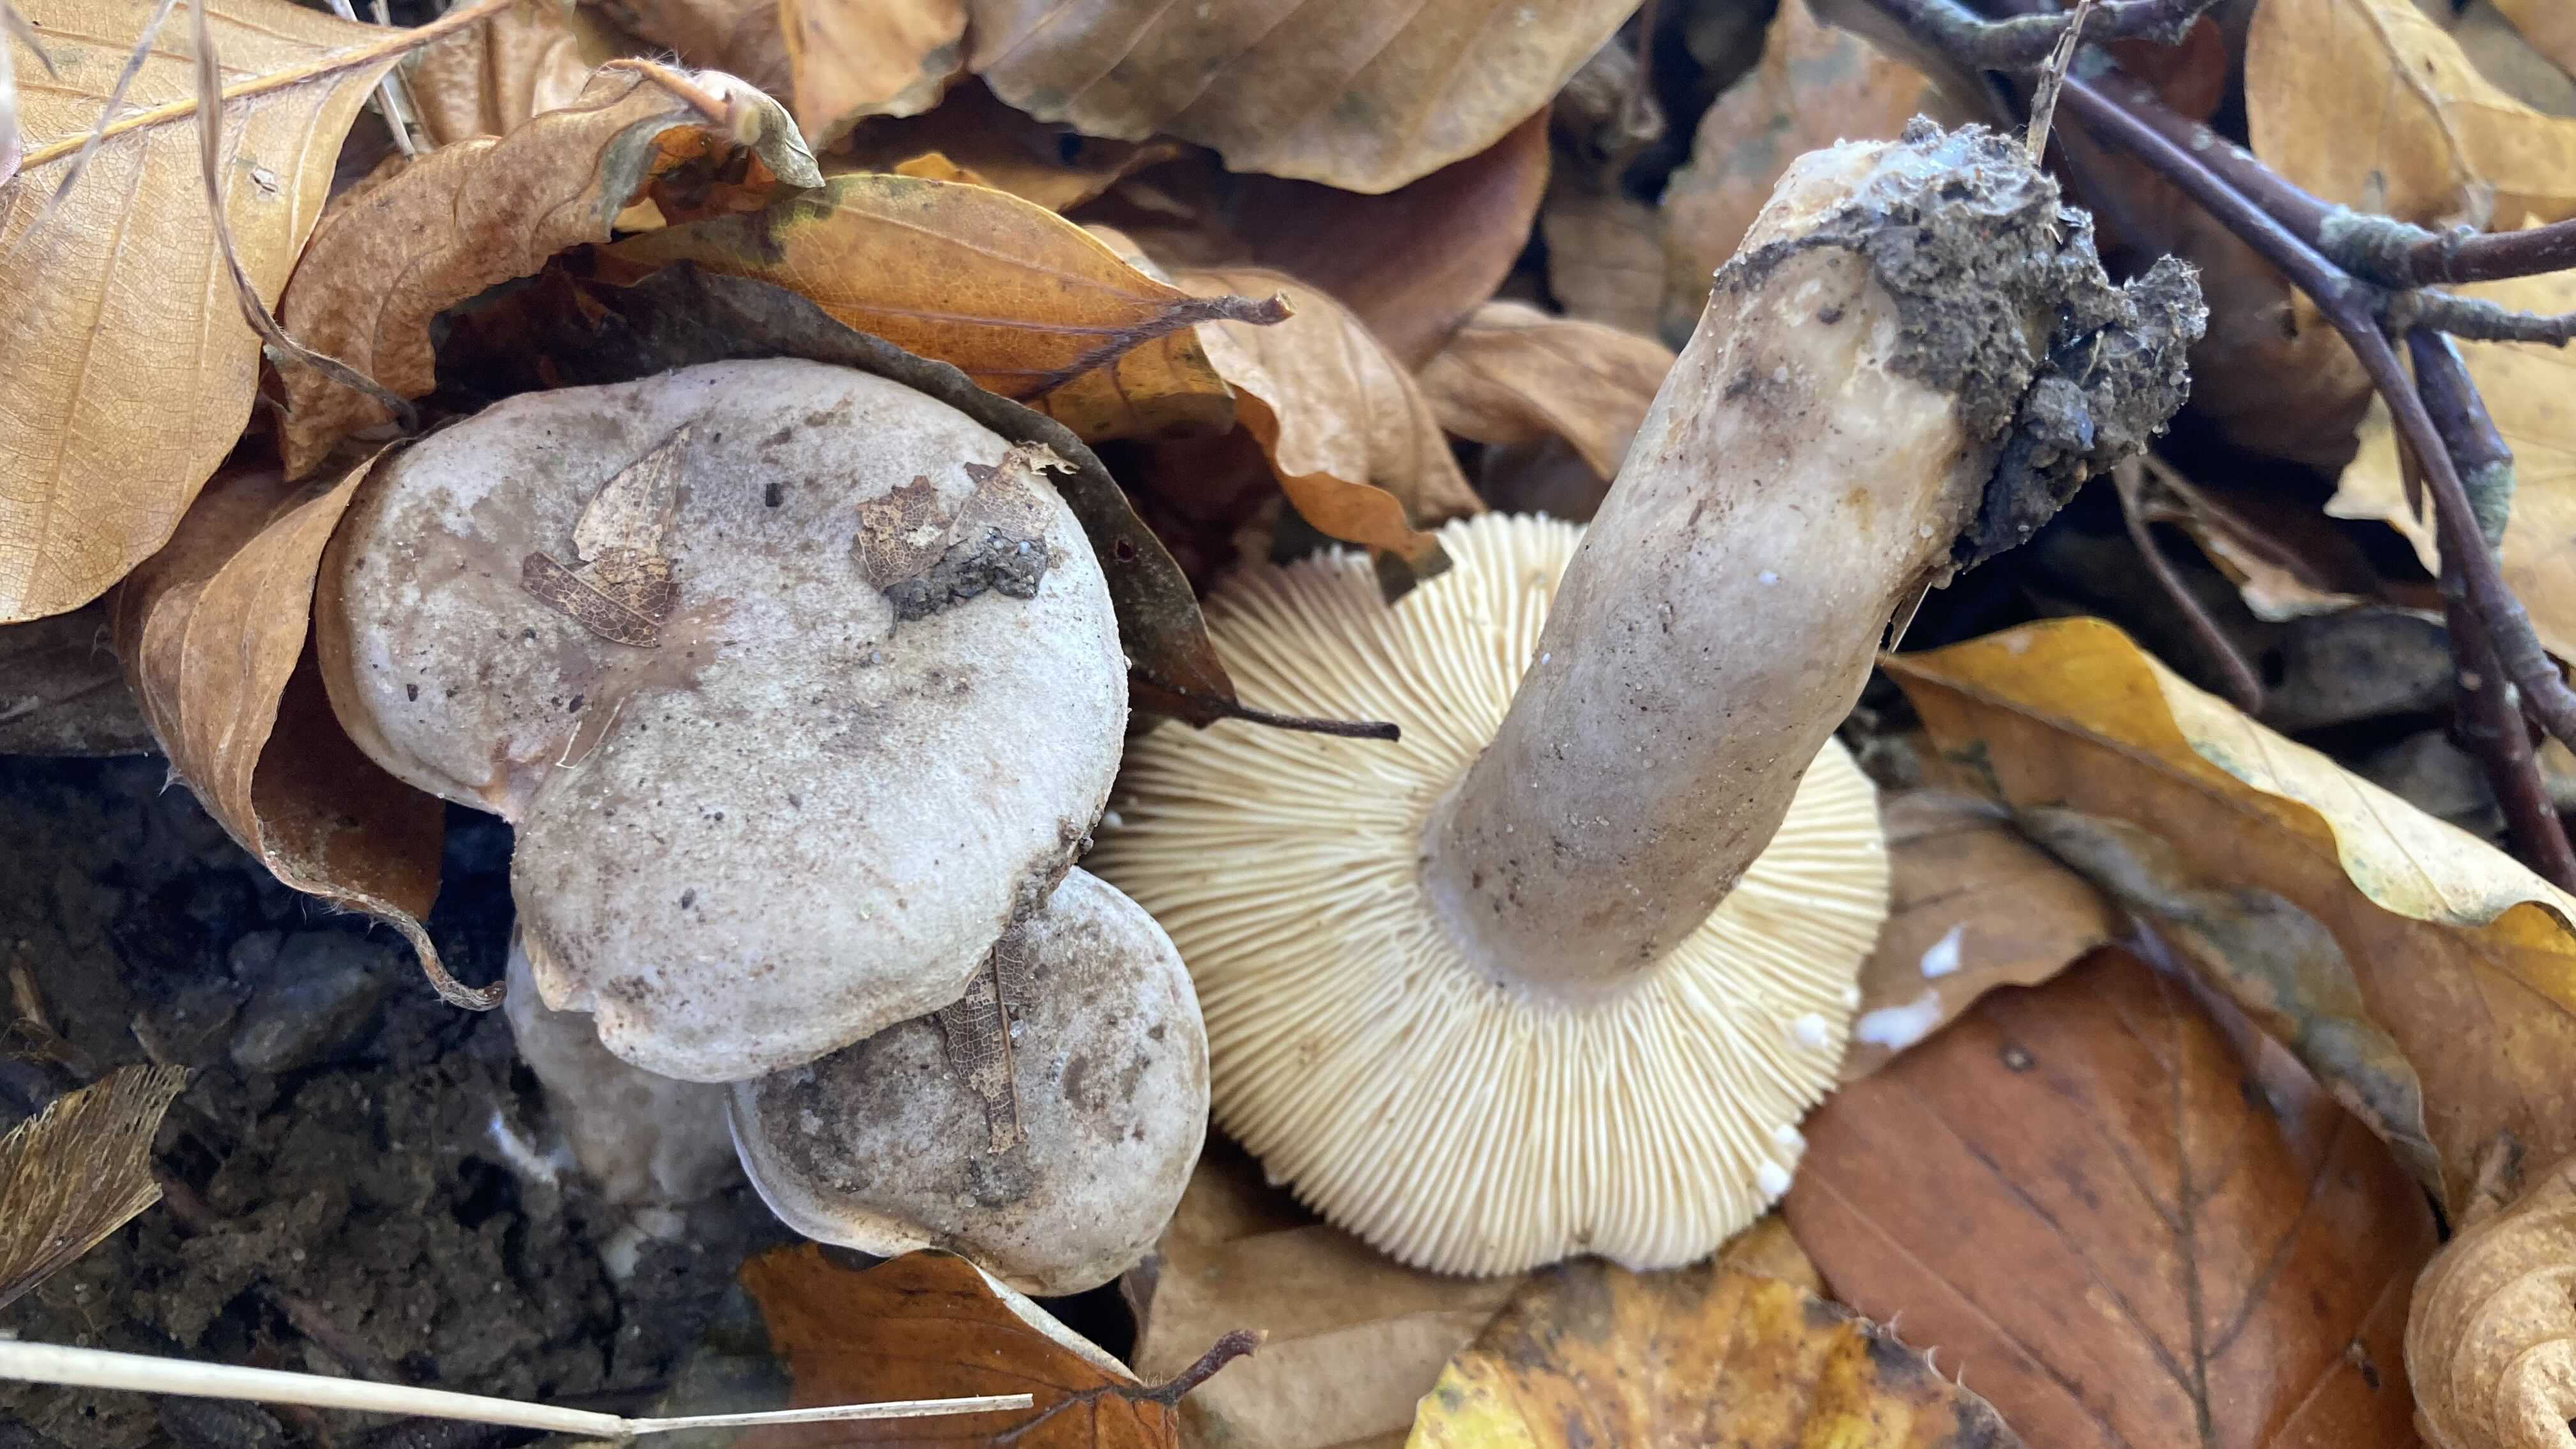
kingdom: Fungi
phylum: Basidiomycota
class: Agaricomycetes
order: Russulales
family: Russulaceae
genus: Lactarius
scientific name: Lactarius blennius
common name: dråbeplettet mælkehat
